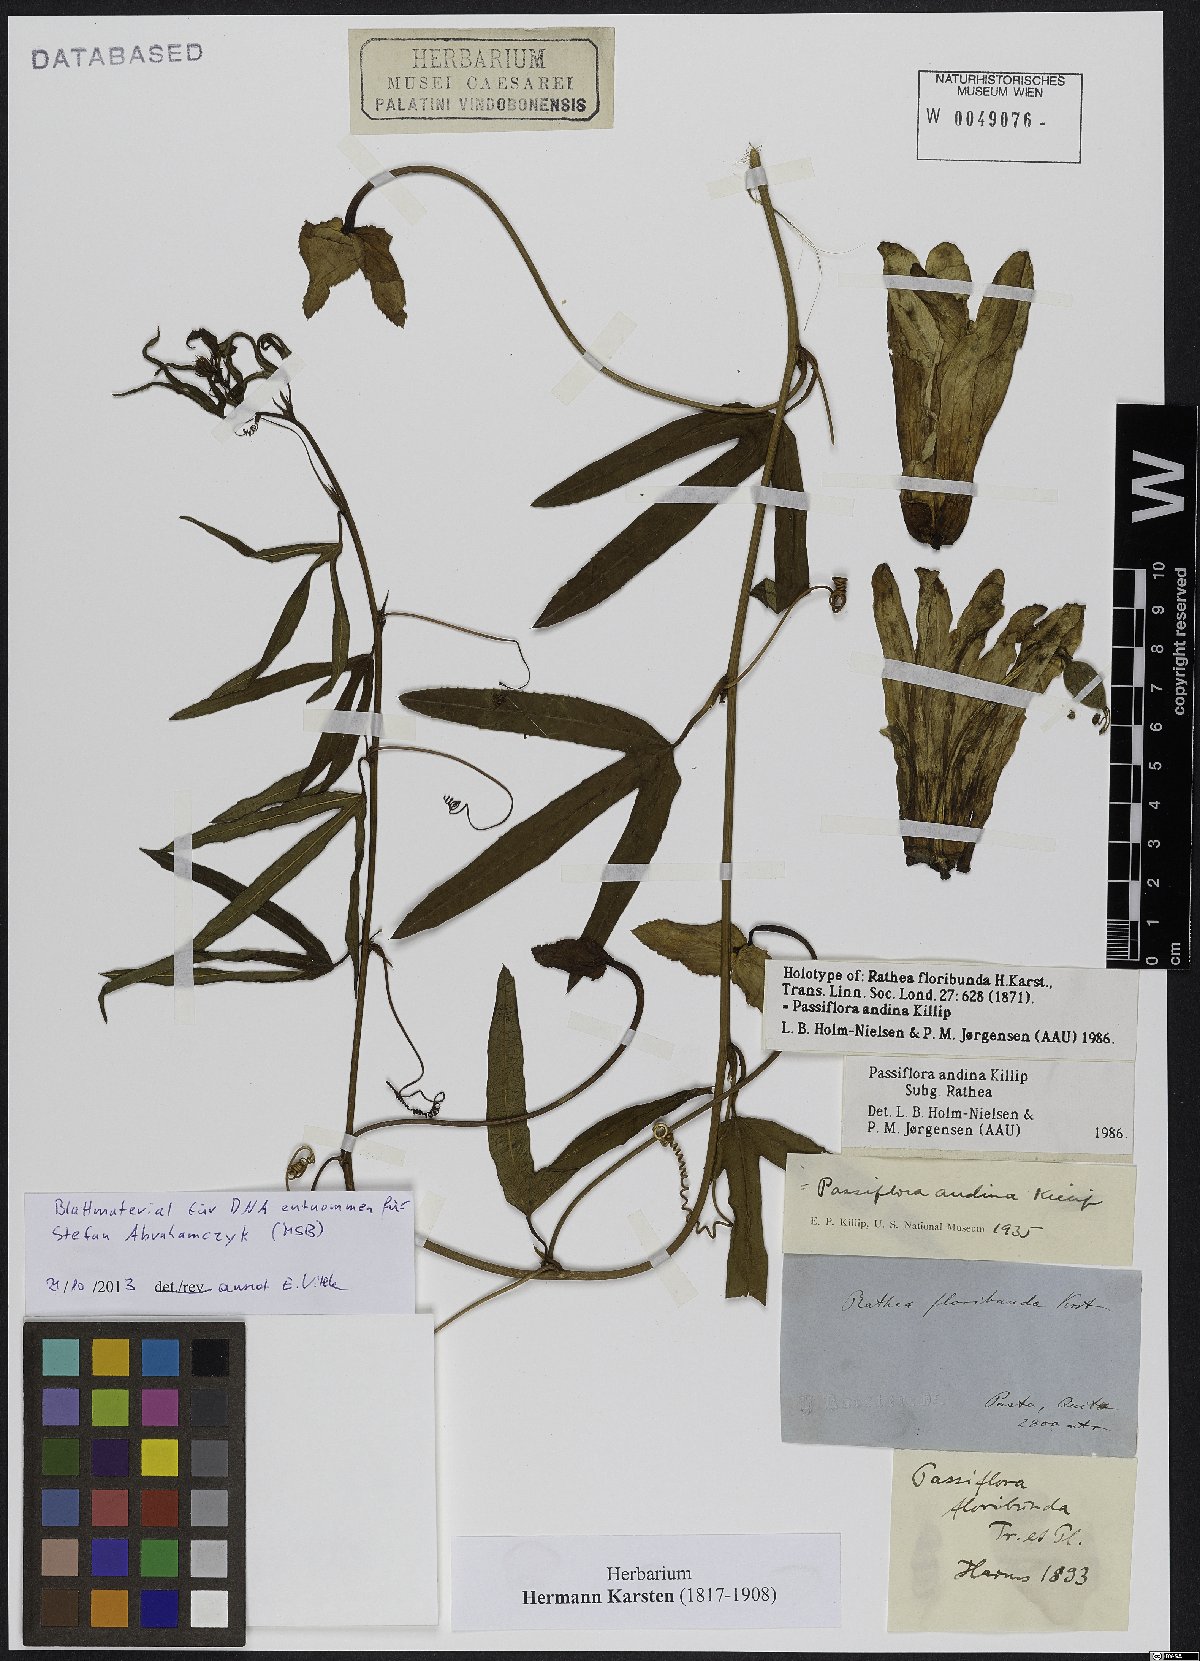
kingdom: Plantae
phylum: Tracheophyta
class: Magnoliopsida
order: Malpighiales
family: Passifloraceae
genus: Passiflora
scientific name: Passiflora andina
